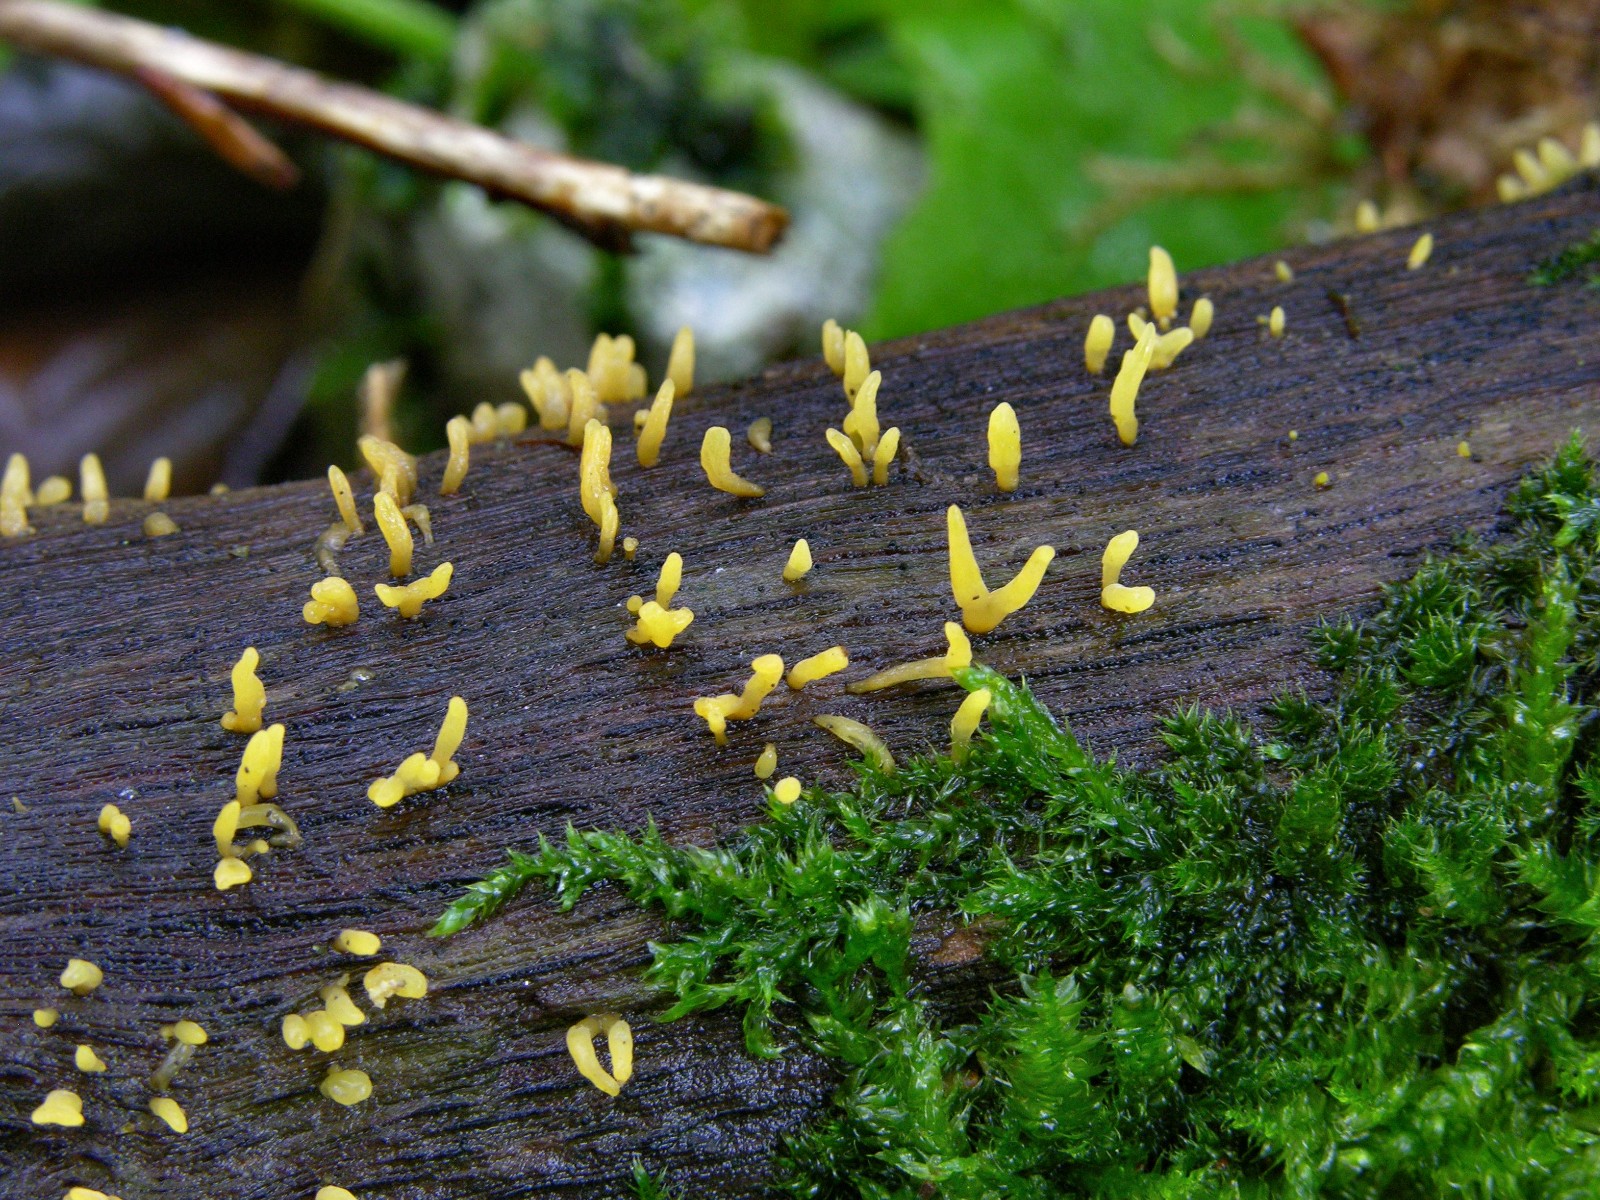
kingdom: Fungi
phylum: Basidiomycota
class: Dacrymycetes
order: Dacrymycetales
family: Dacrymycetaceae
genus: Calocera
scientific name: Calocera
